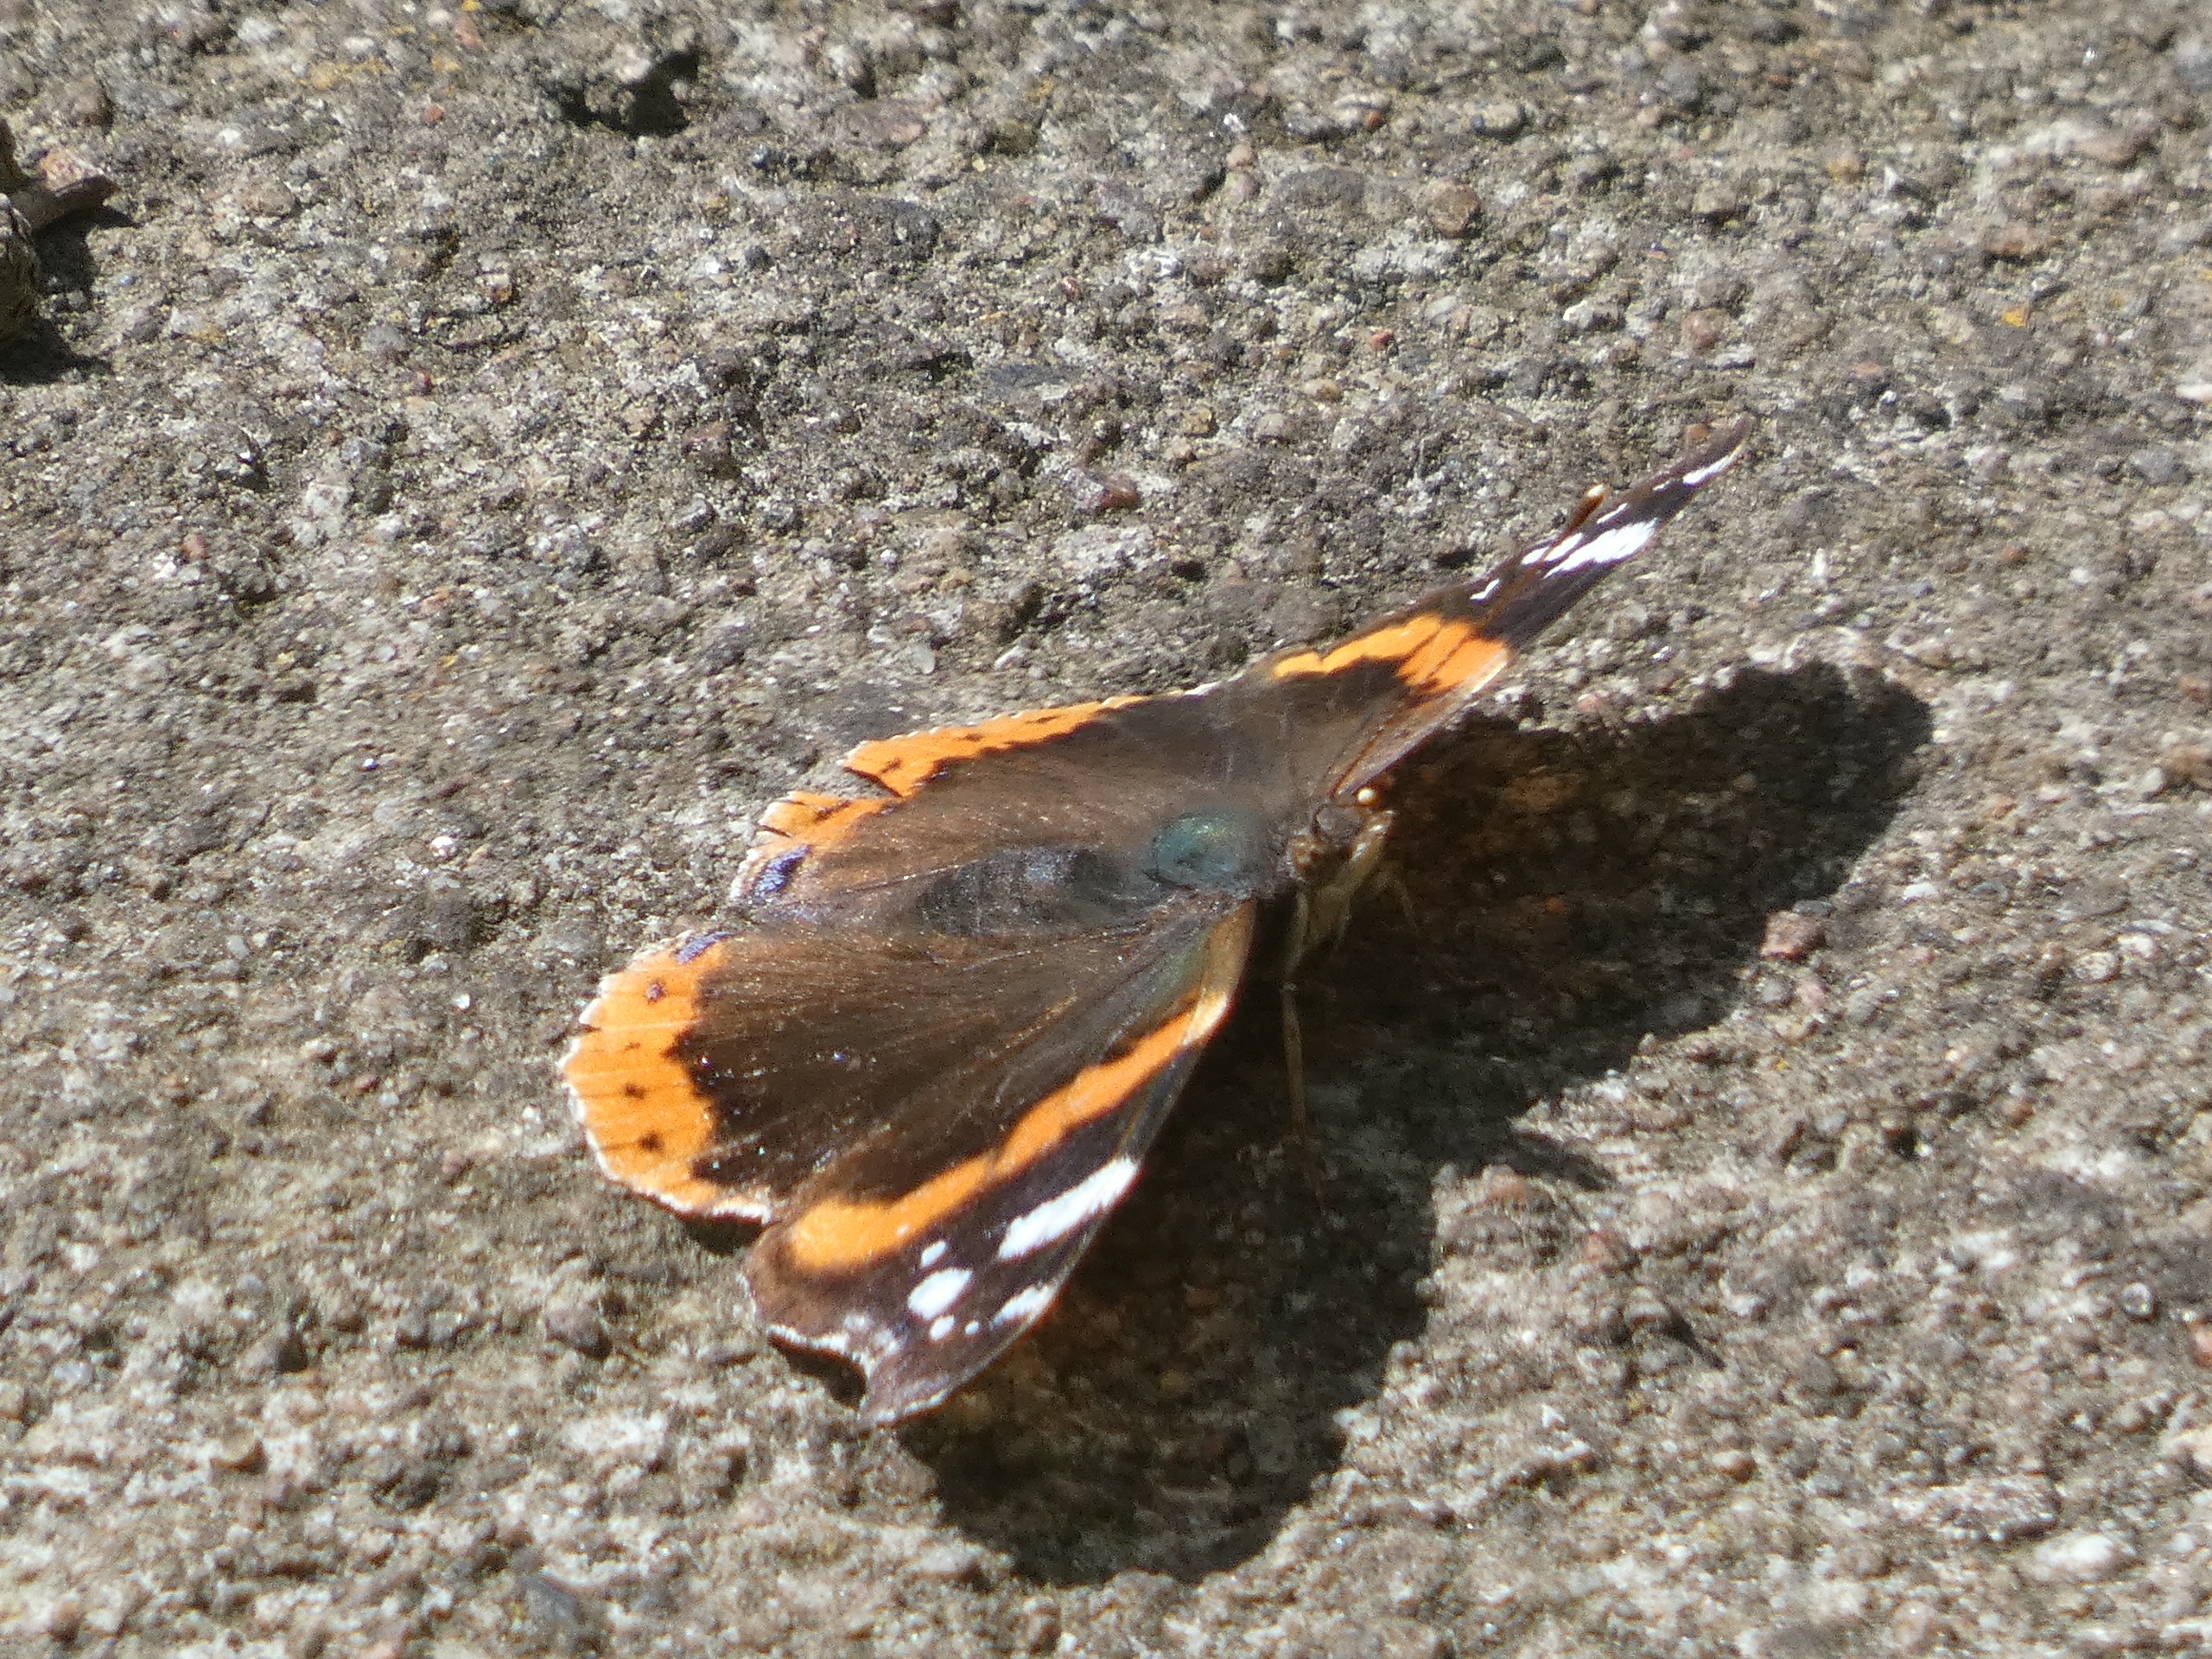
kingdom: Animalia
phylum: Arthropoda
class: Insecta
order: Lepidoptera
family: Nymphalidae
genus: Vanessa
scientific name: Vanessa atalanta
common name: Admiral
